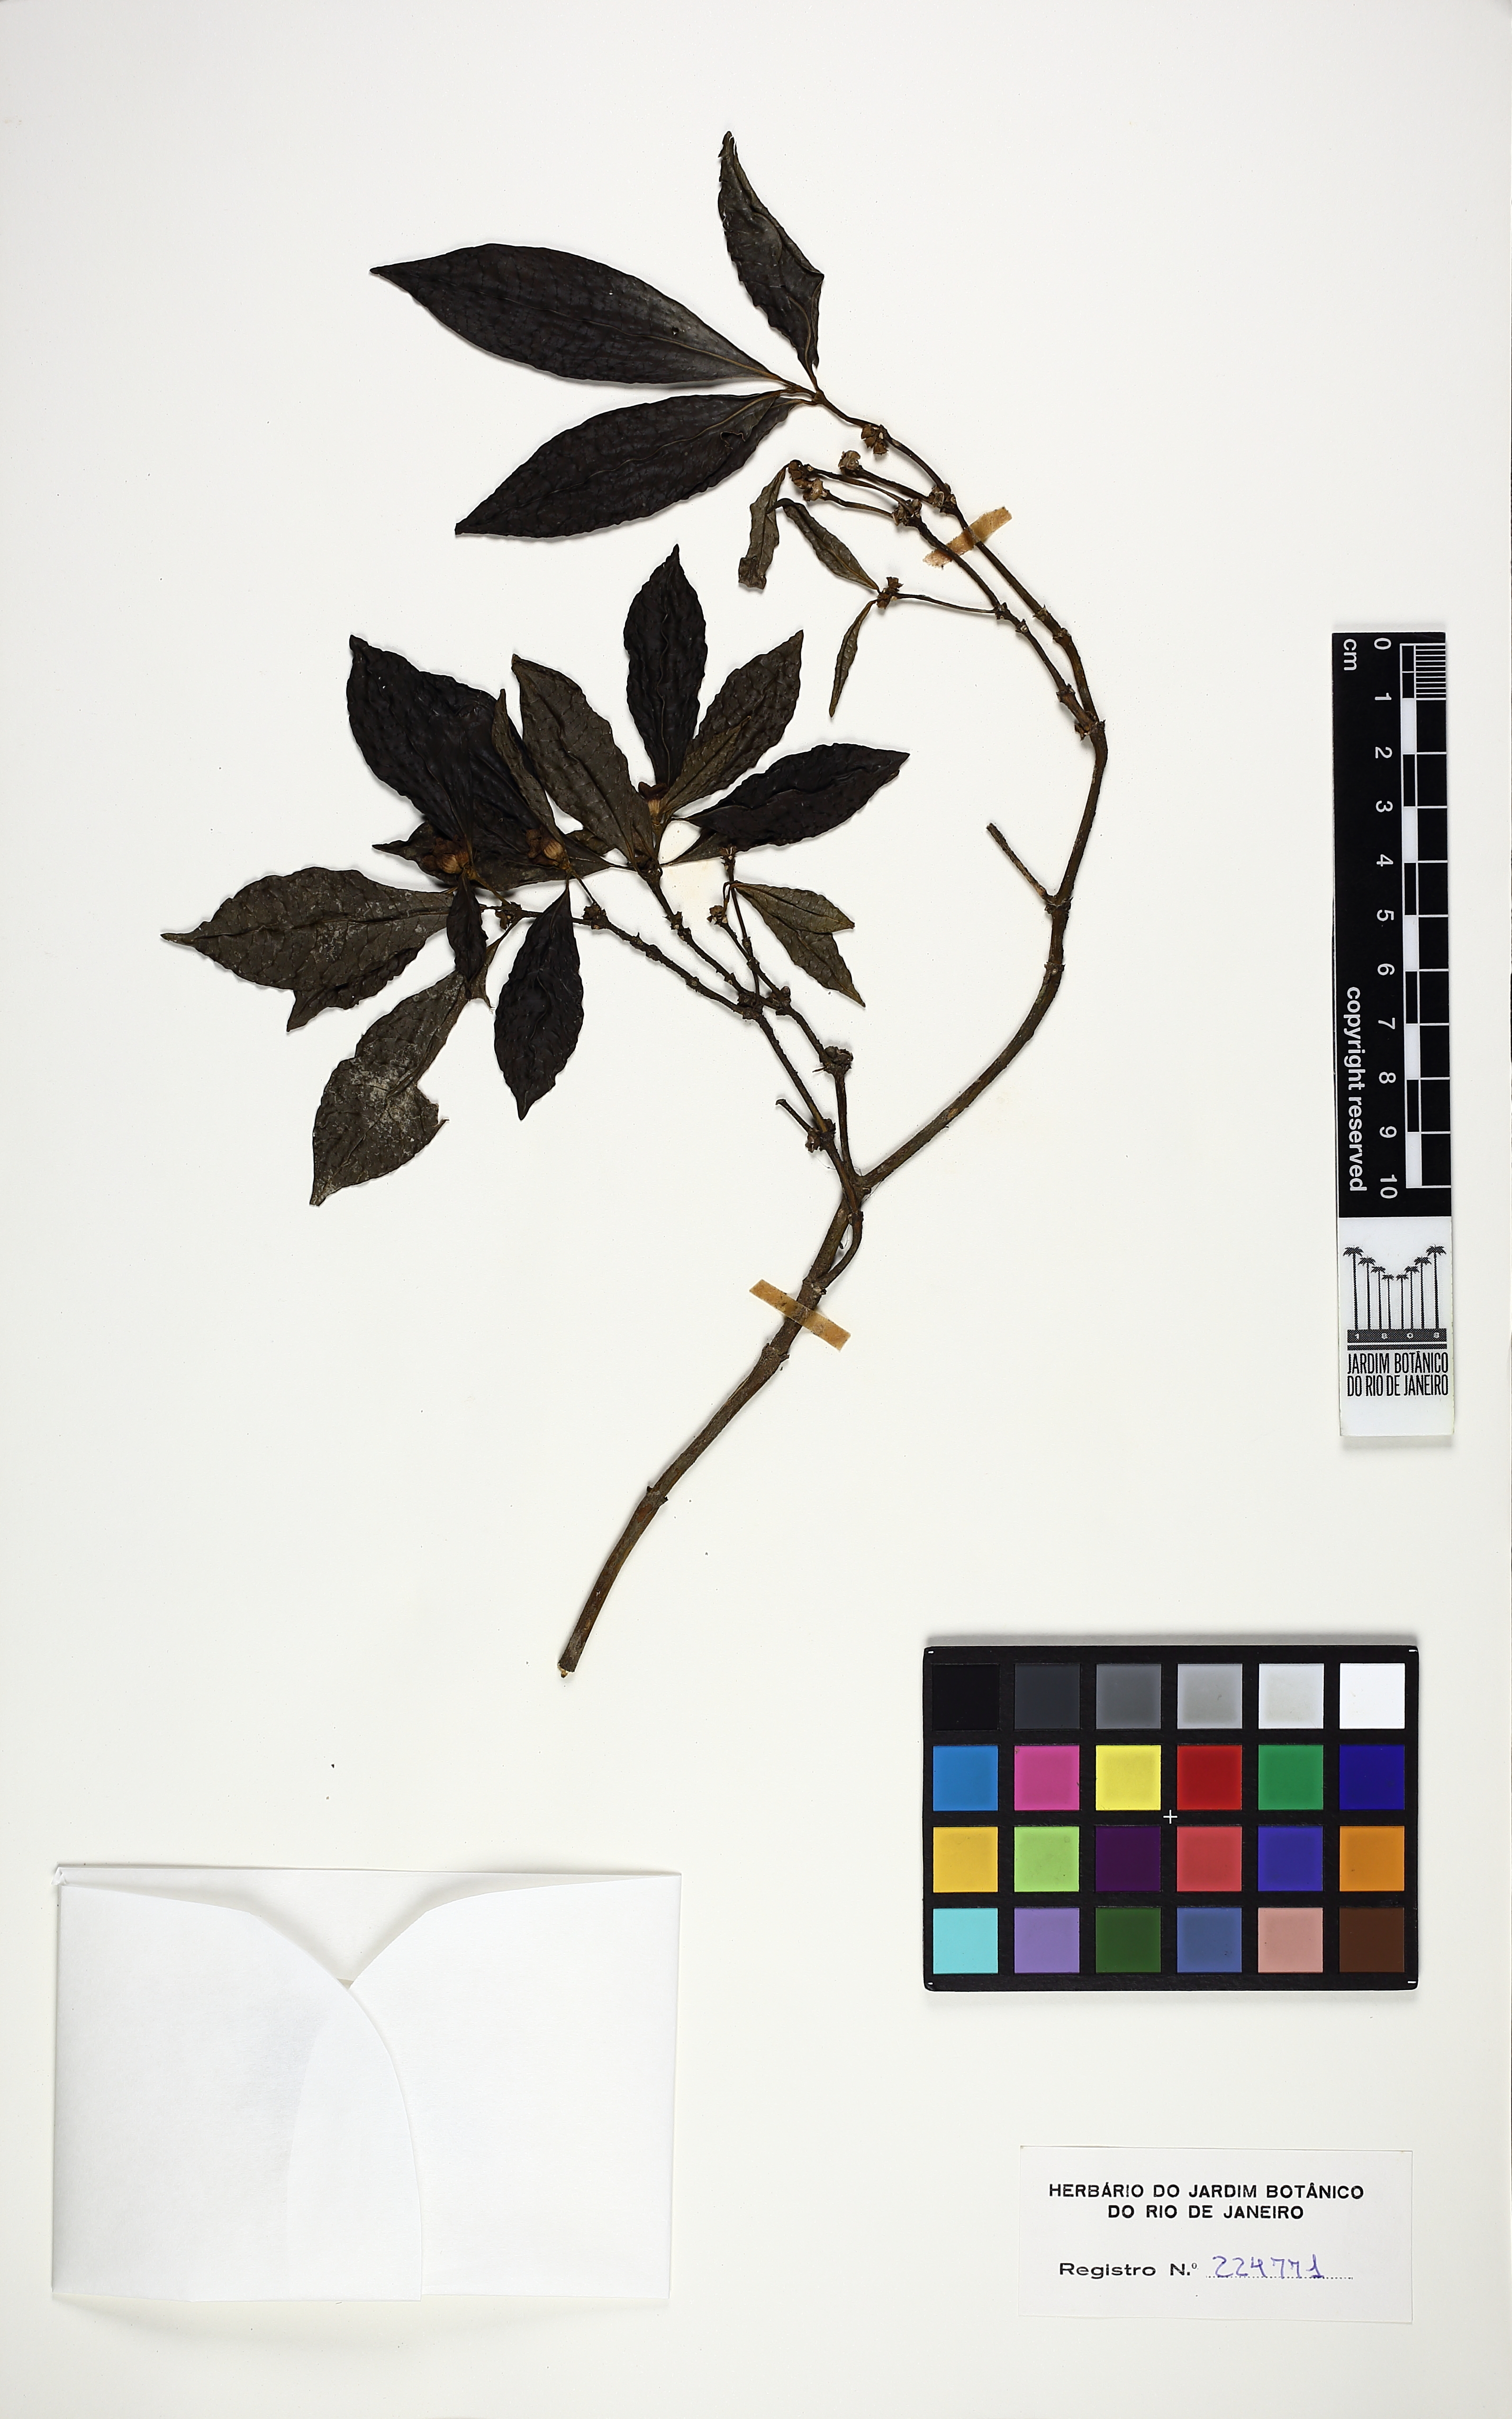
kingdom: Plantae
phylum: Tracheophyta
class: Magnoliopsida
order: Gentianales
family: Rubiaceae
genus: Psychotria
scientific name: Psychotria nuda
